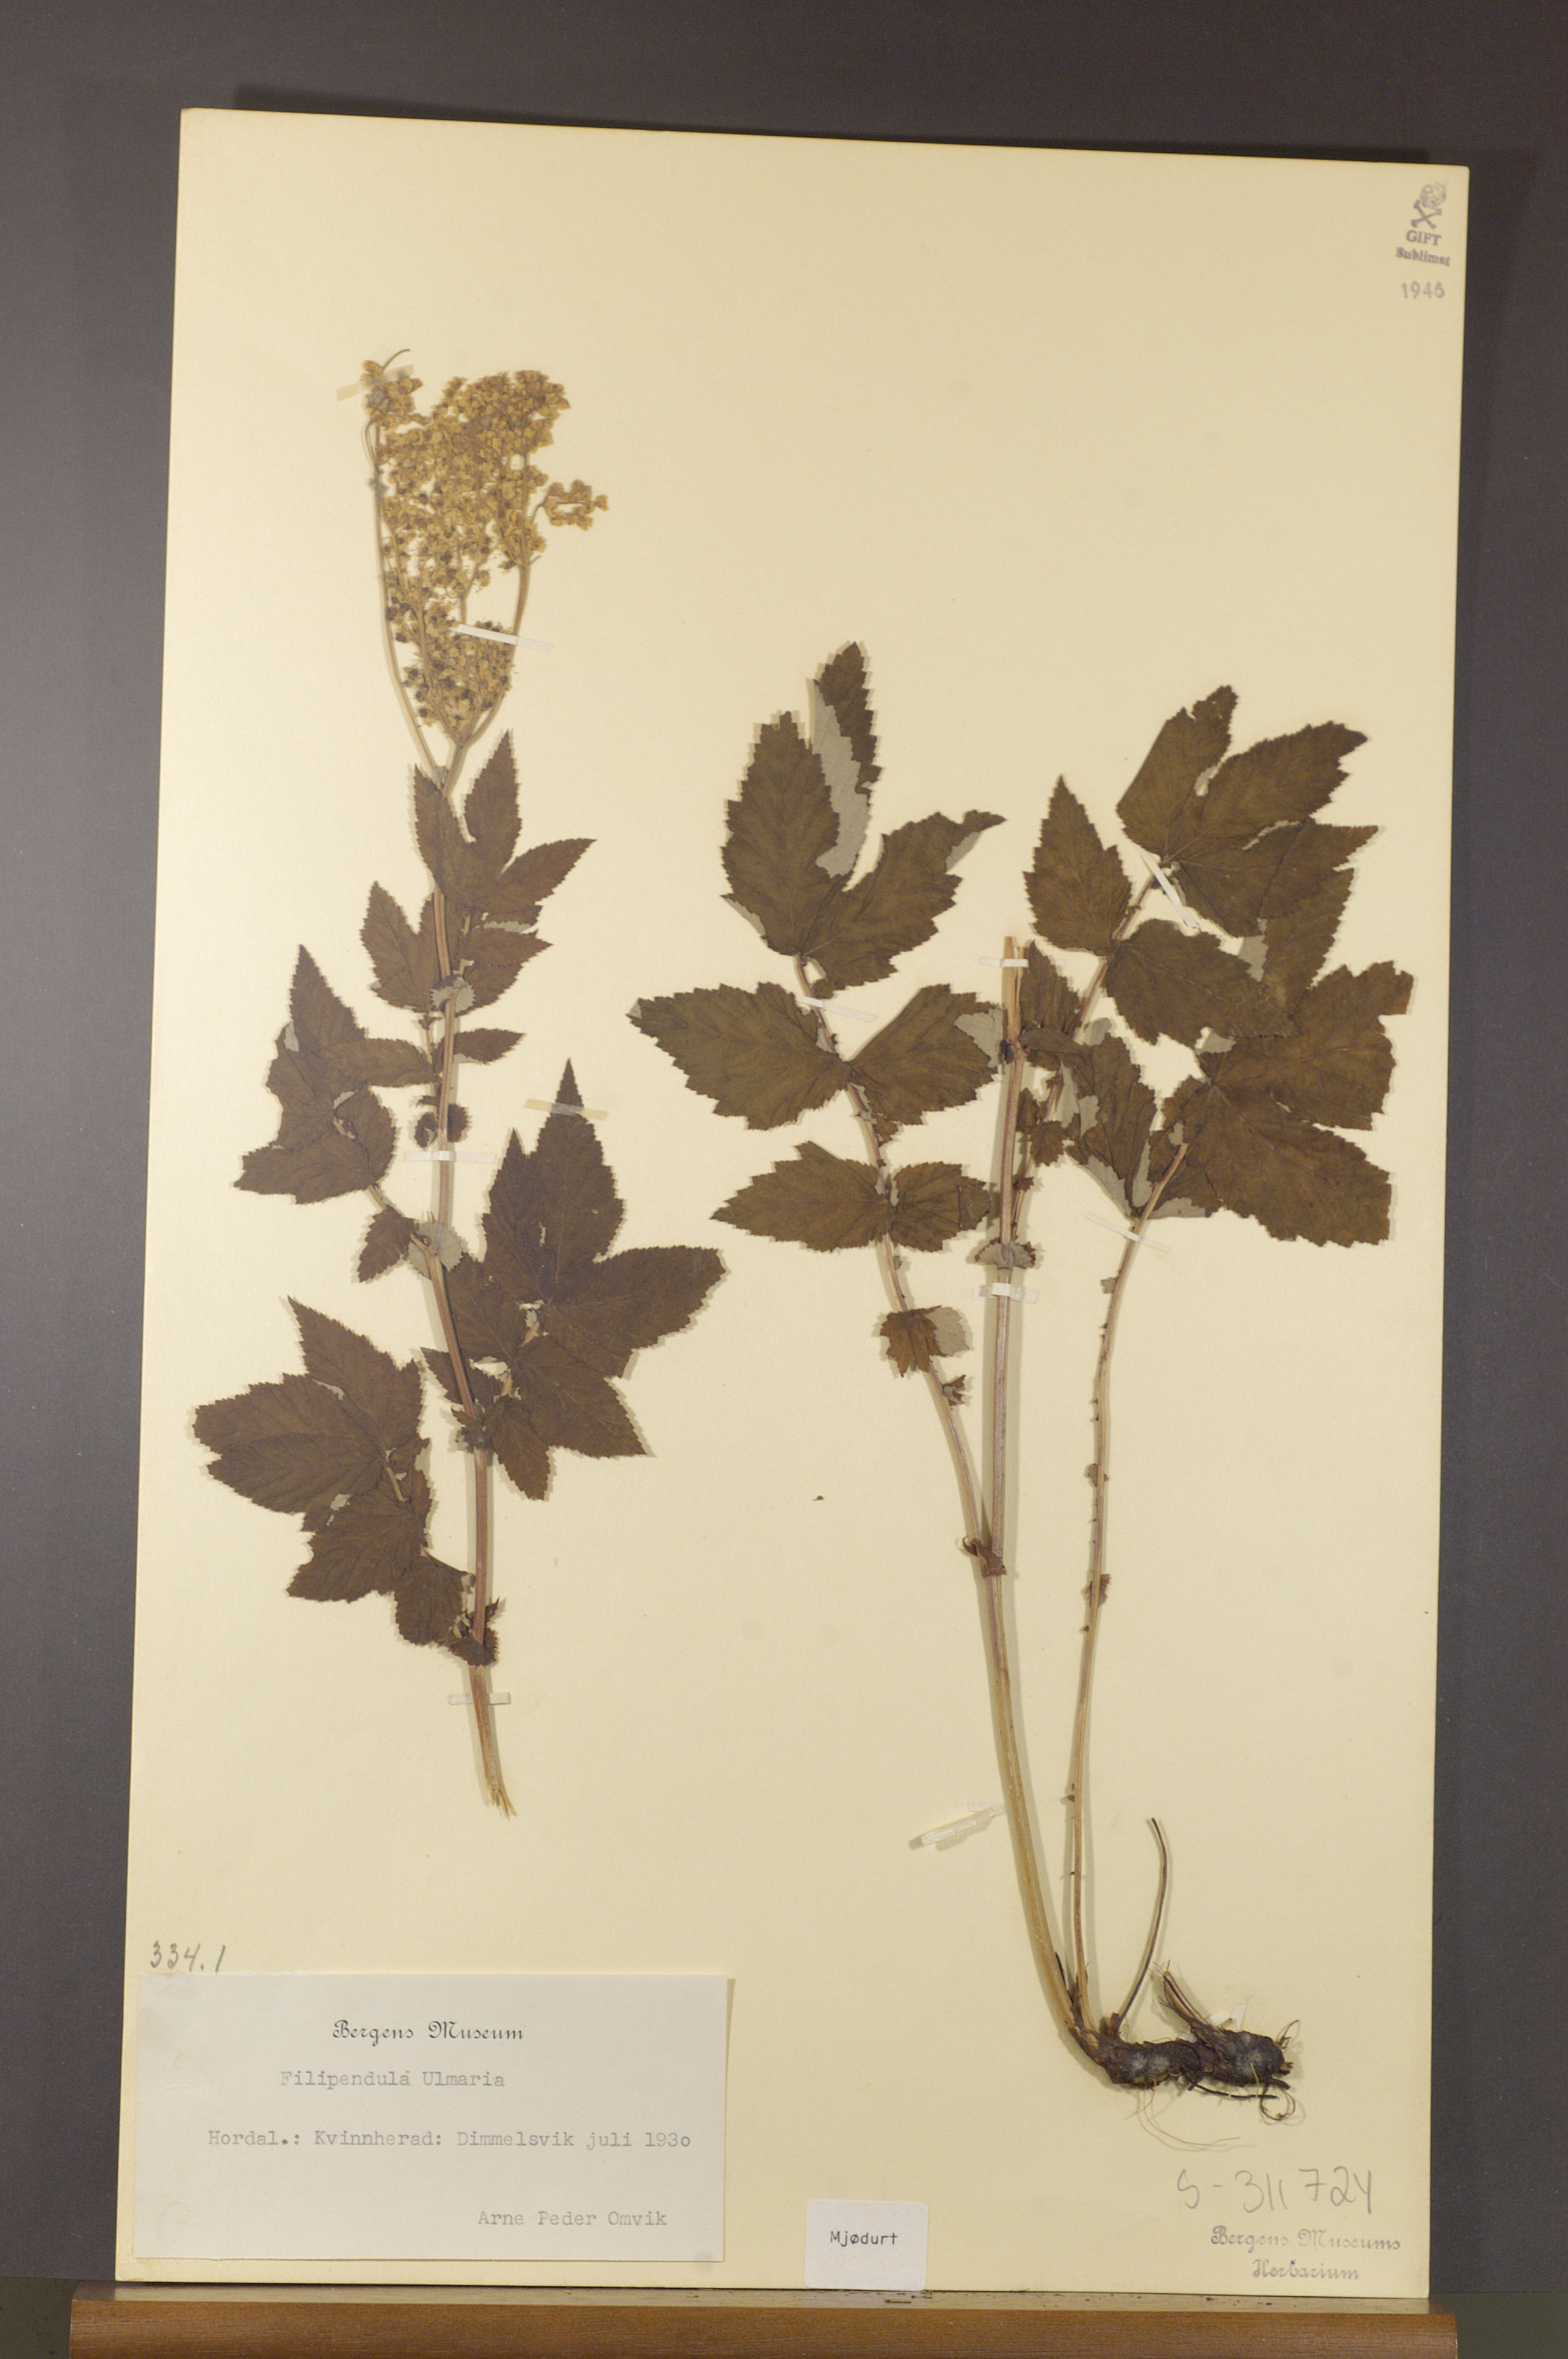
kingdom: Plantae
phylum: Tracheophyta
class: Magnoliopsida
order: Rosales
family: Rosaceae
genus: Filipendula
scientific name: Filipendula ulmaria
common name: Meadowsweet
